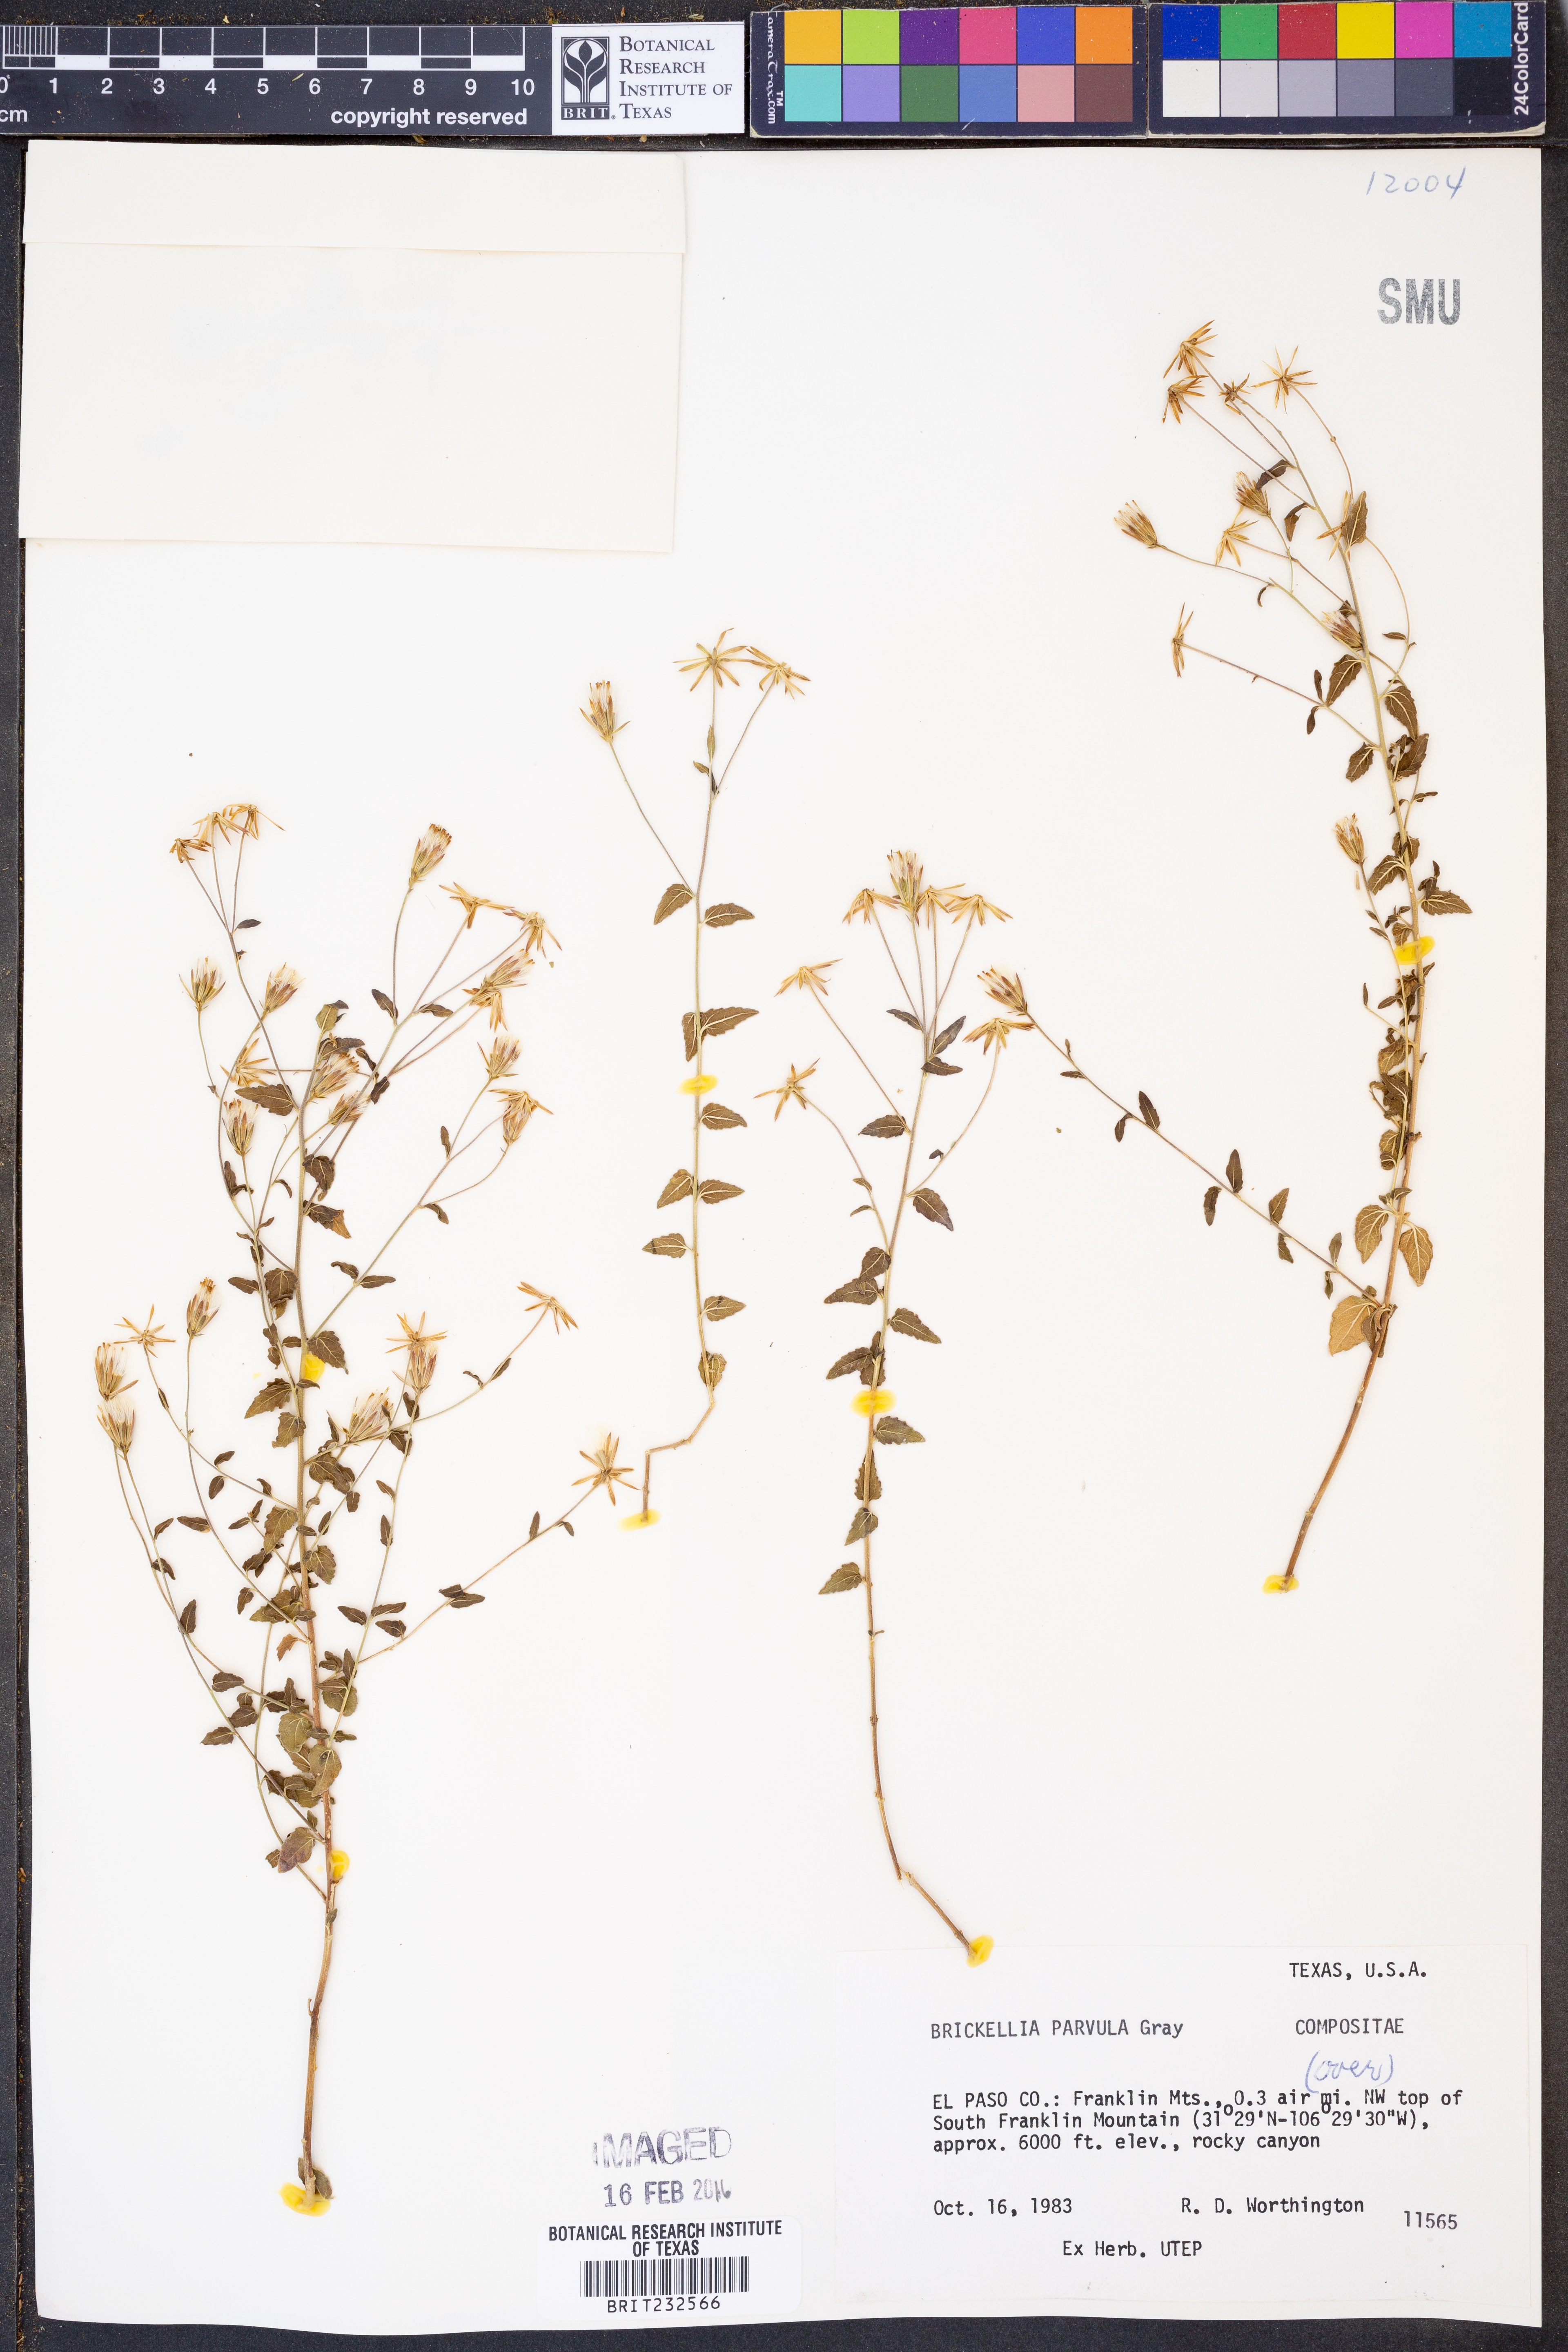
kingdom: Plantae
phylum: Tracheophyta
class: Magnoliopsida
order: Asterales
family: Asteraceae
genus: Brickellia
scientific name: Brickellia parvula
